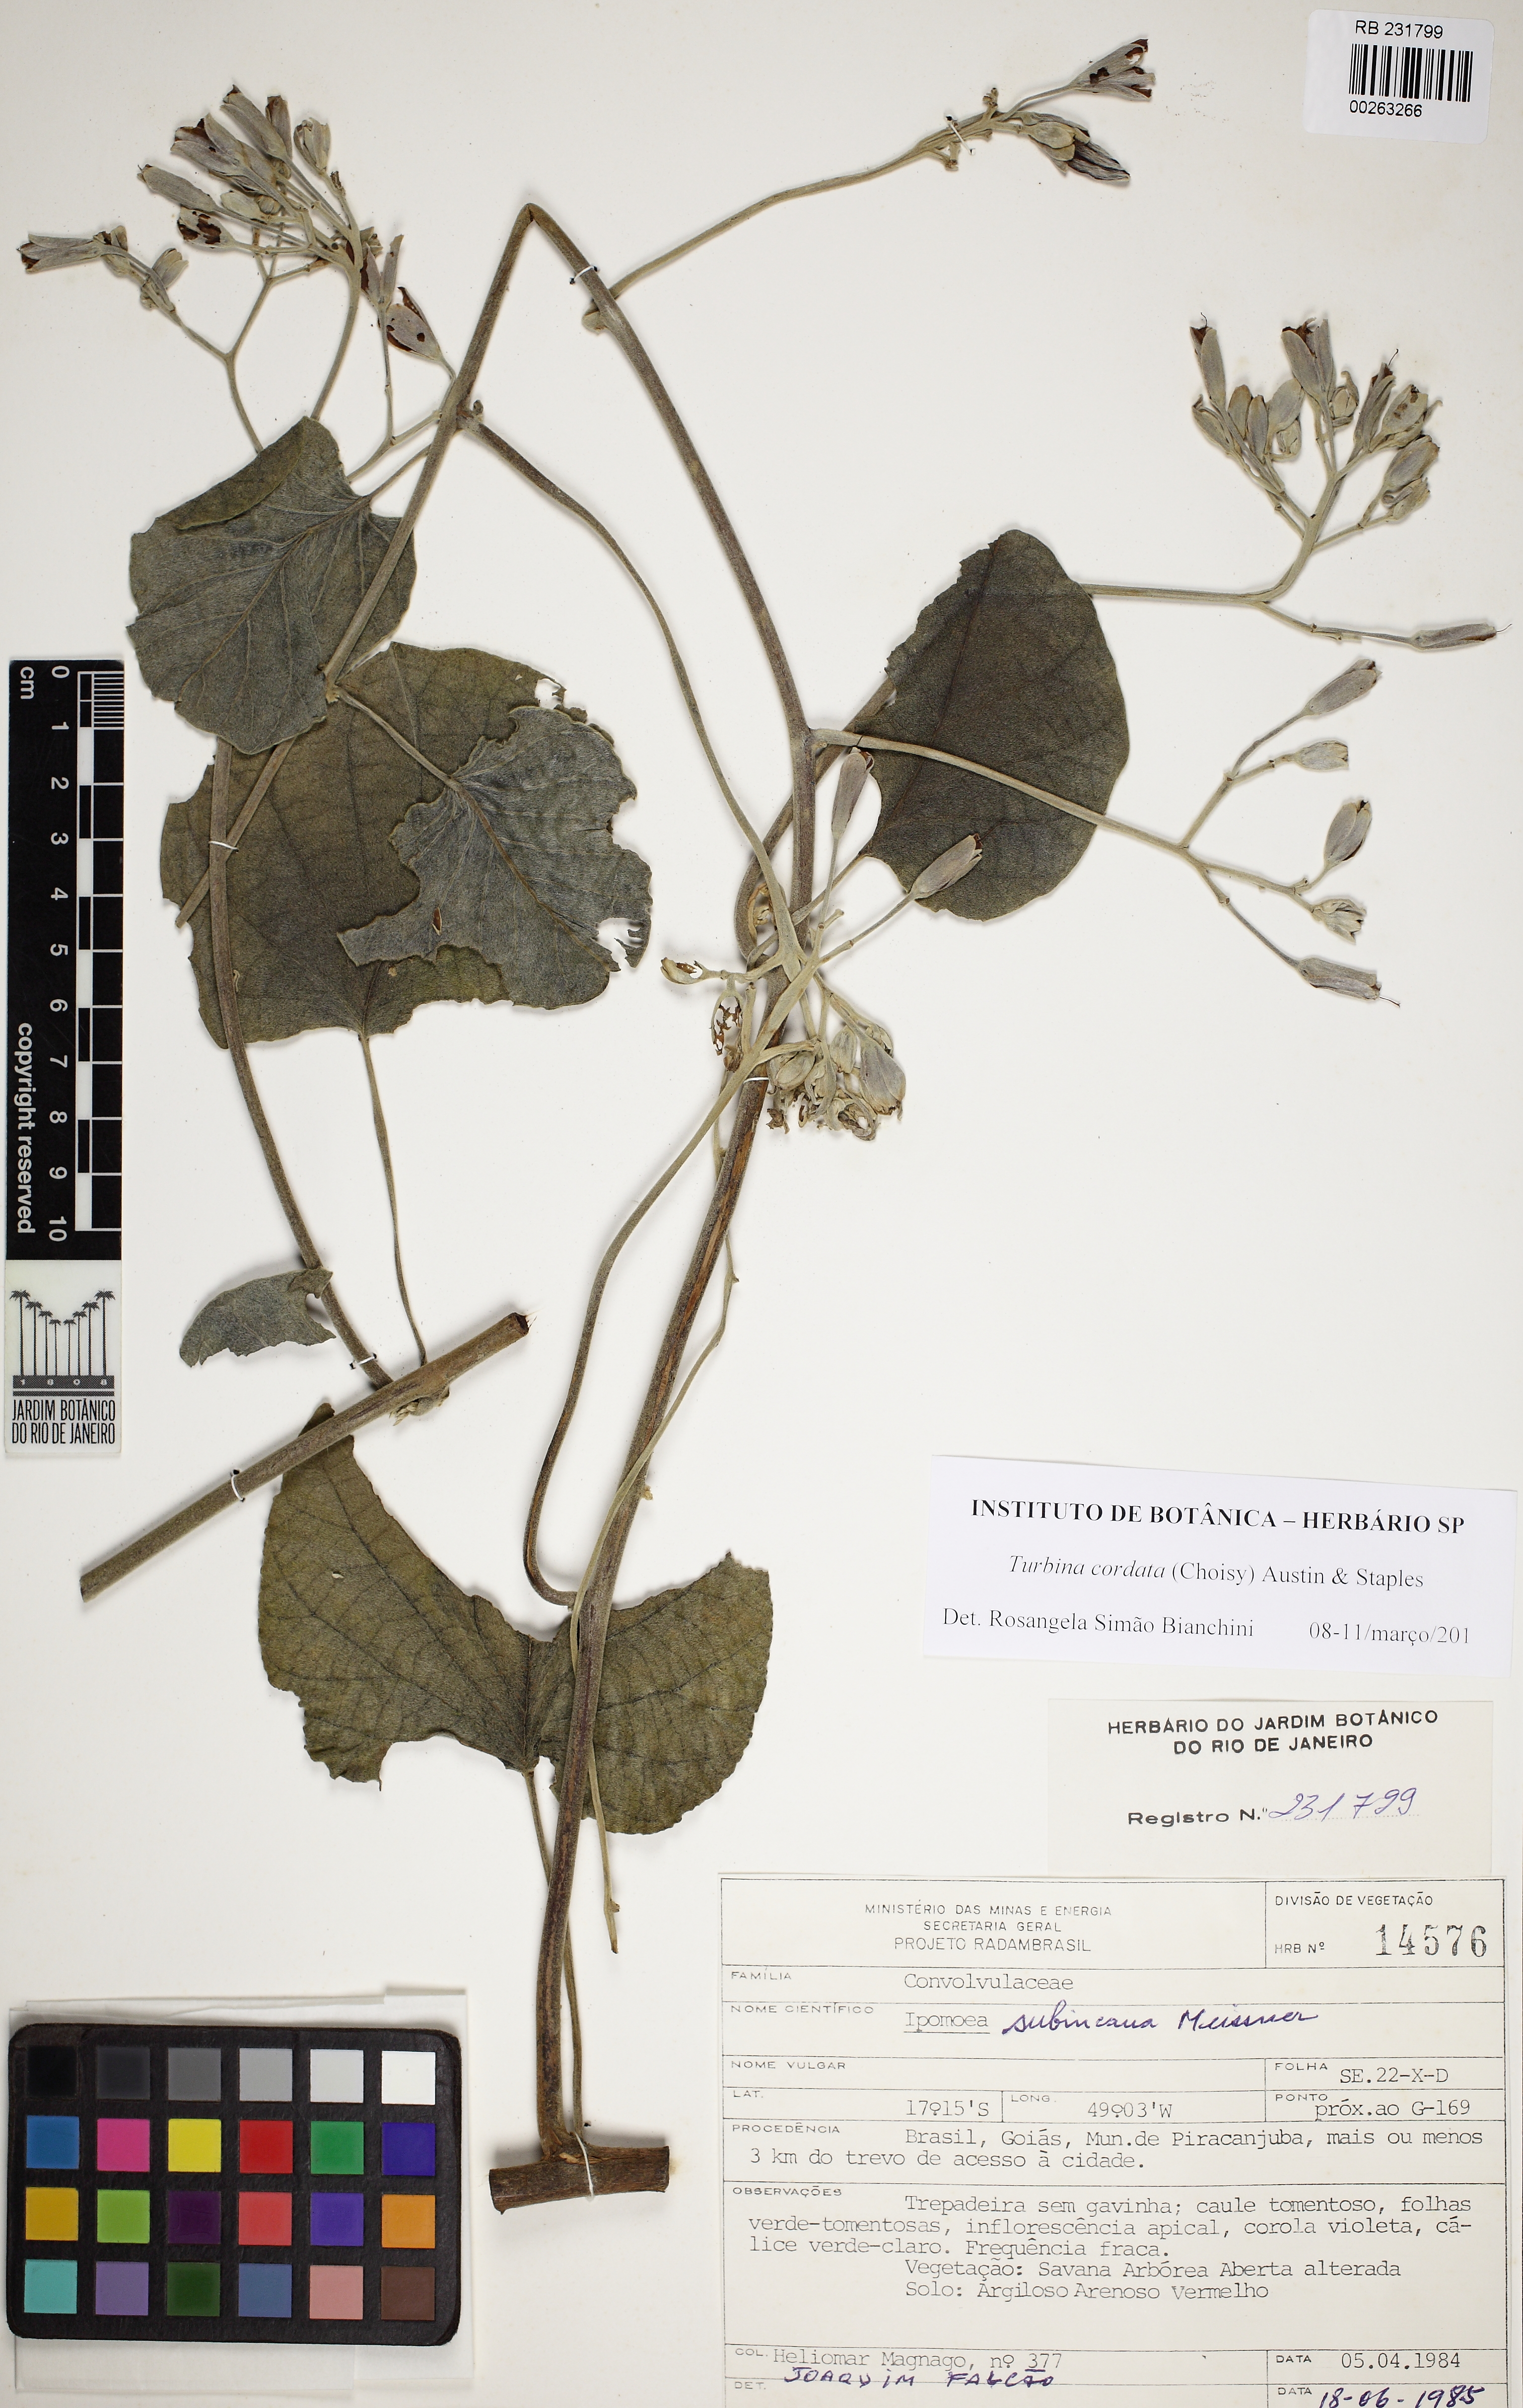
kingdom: Plantae
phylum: Tracheophyta
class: Magnoliopsida
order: Solanales
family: Convolvulaceae
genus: Ipomoea
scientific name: Ipomoea sericosepala
